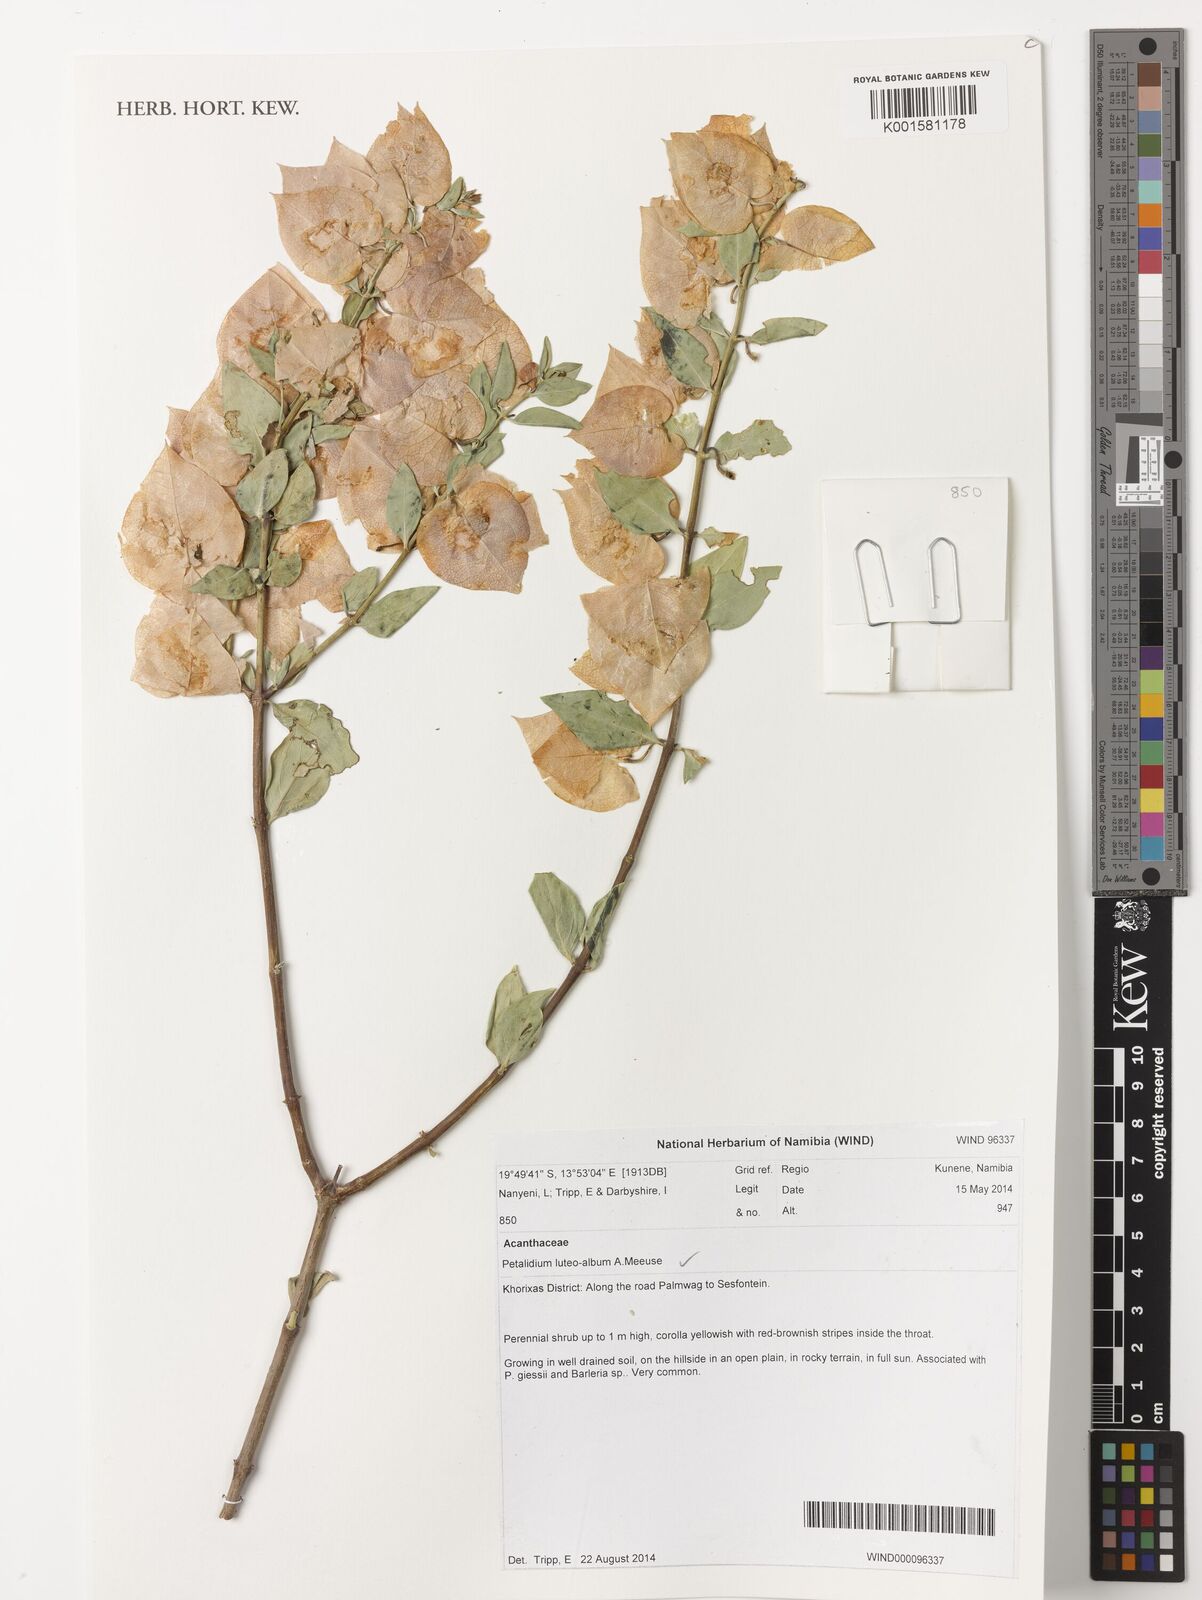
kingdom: Plantae
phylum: Tracheophyta
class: Magnoliopsida
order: Lamiales
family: Acanthaceae
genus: Petalidium
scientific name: Petalidium luteoalbum
